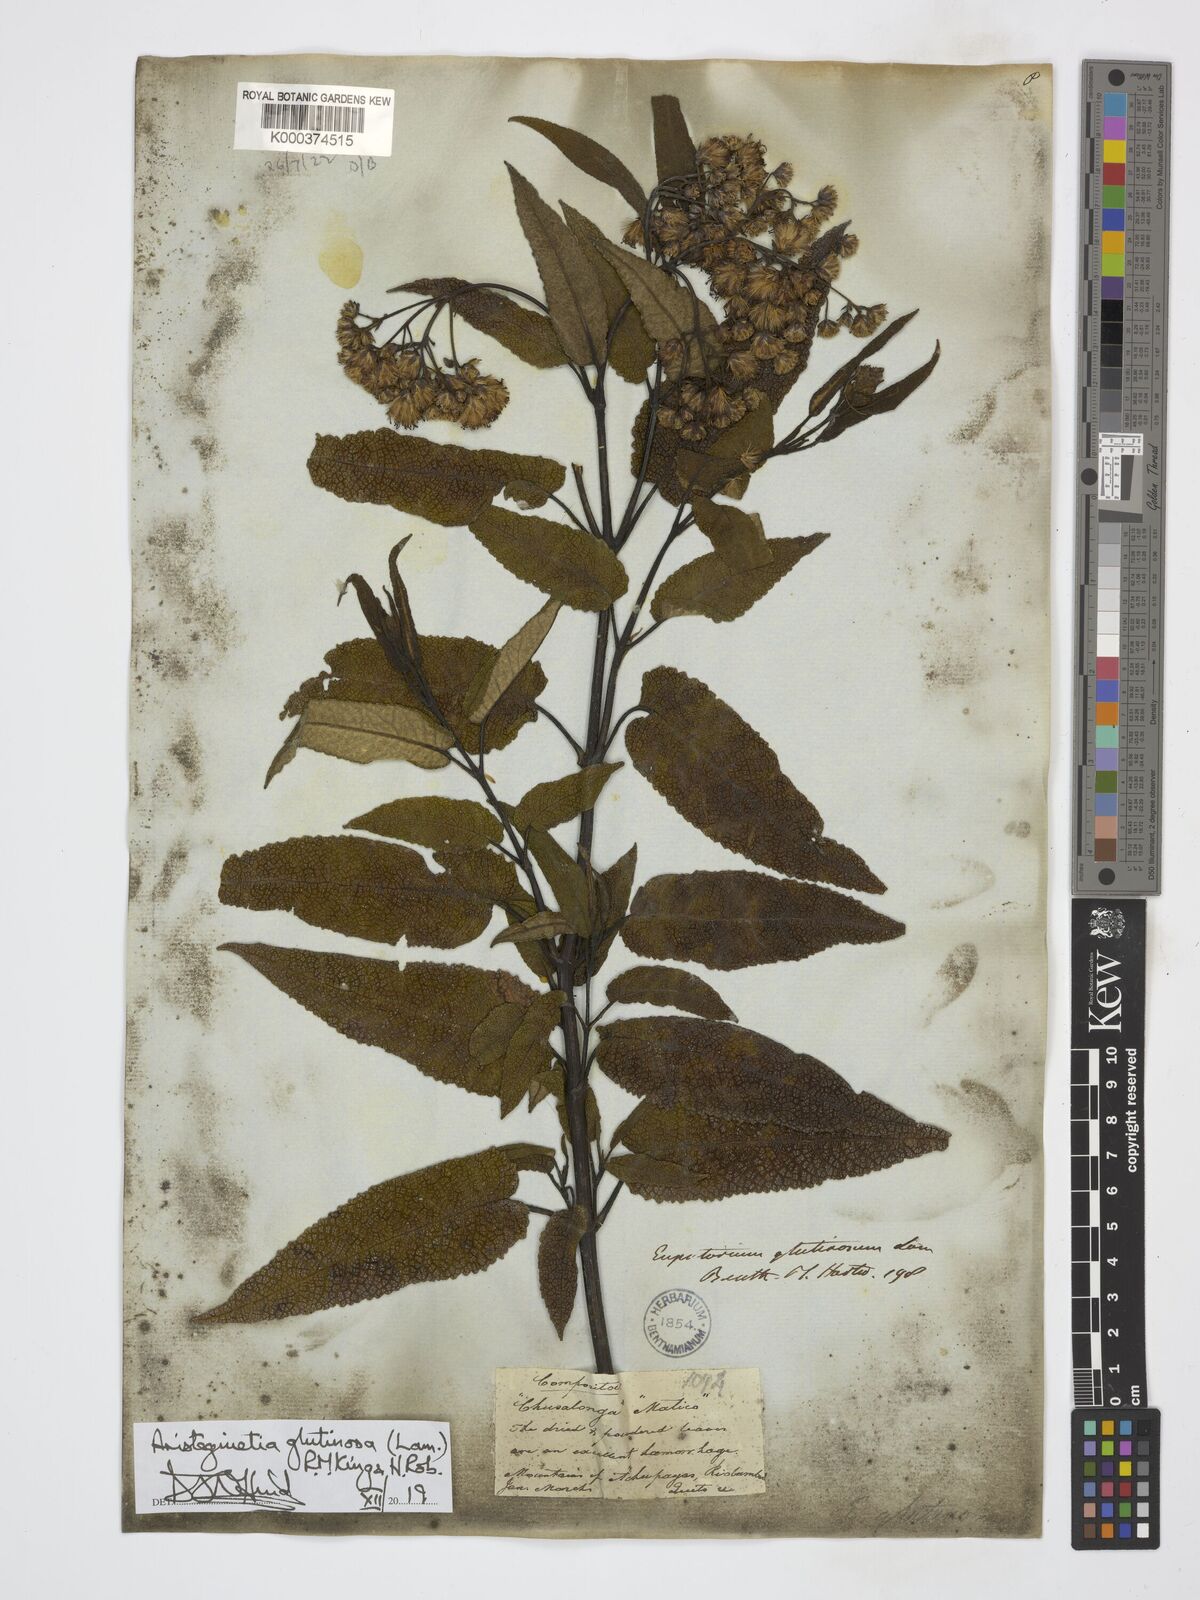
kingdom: Plantae
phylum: Tracheophyta
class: Magnoliopsida
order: Asterales
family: Asteraceae
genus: Aristeguietia
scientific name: Aristeguietia glutinosa
